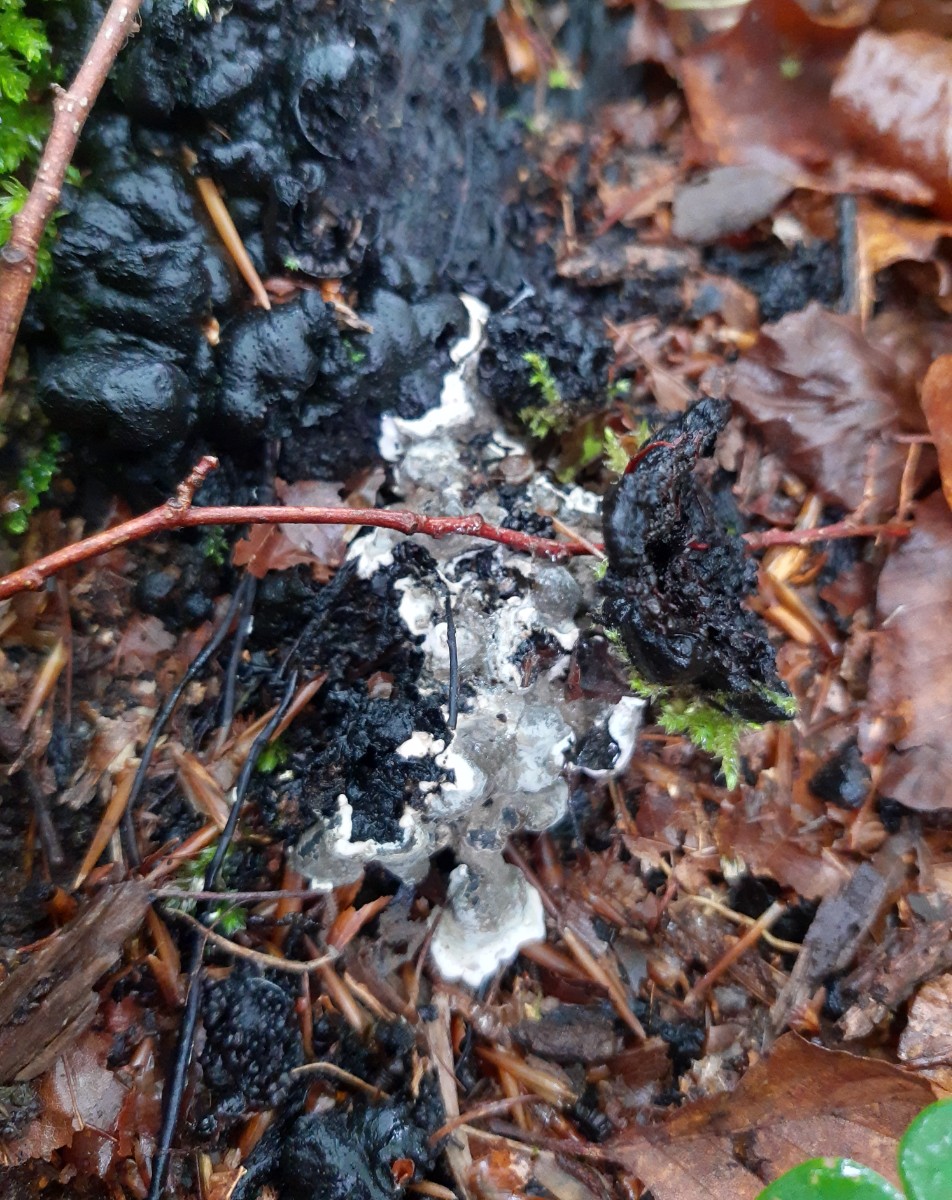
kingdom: Fungi
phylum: Ascomycota
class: Sordariomycetes
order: Xylariales
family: Xylariaceae
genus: Kretzschmaria
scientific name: Kretzschmaria deusta
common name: stor kulsvamp
